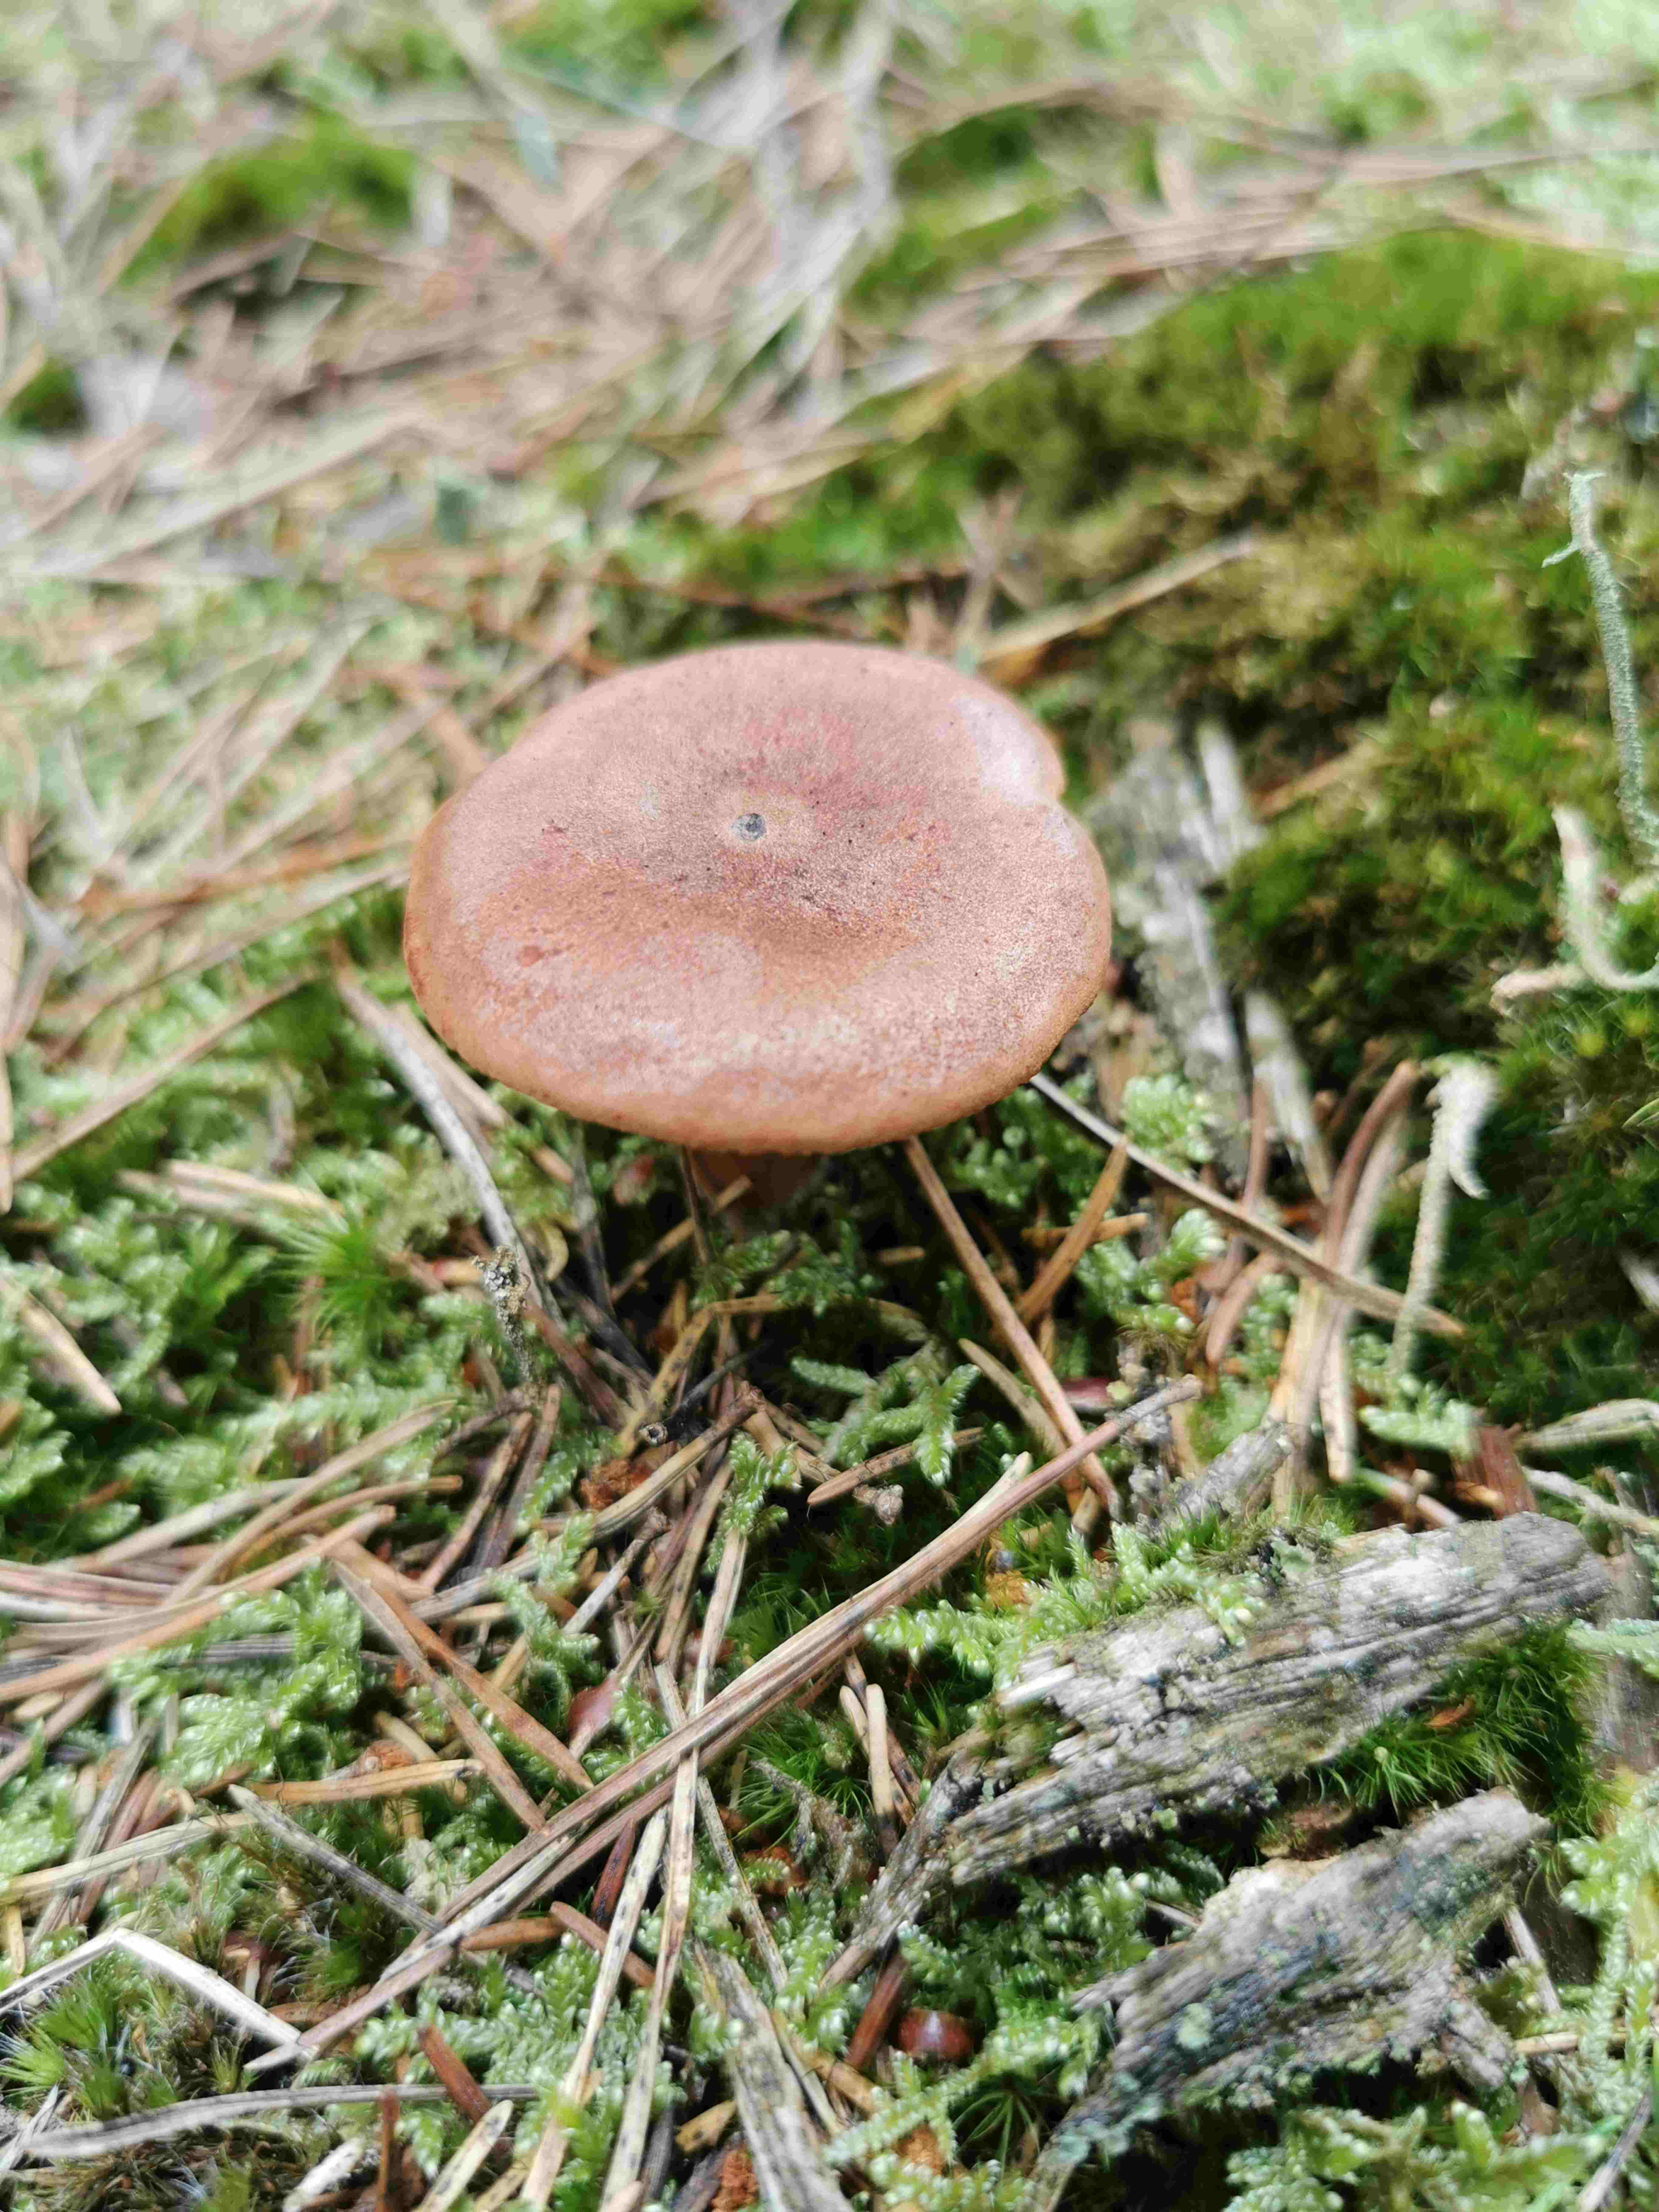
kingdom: Fungi
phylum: Basidiomycota
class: Agaricomycetes
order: Russulales
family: Russulaceae
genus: Lactarius
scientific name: Lactarius rufus
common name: rødbrun mælkehat
